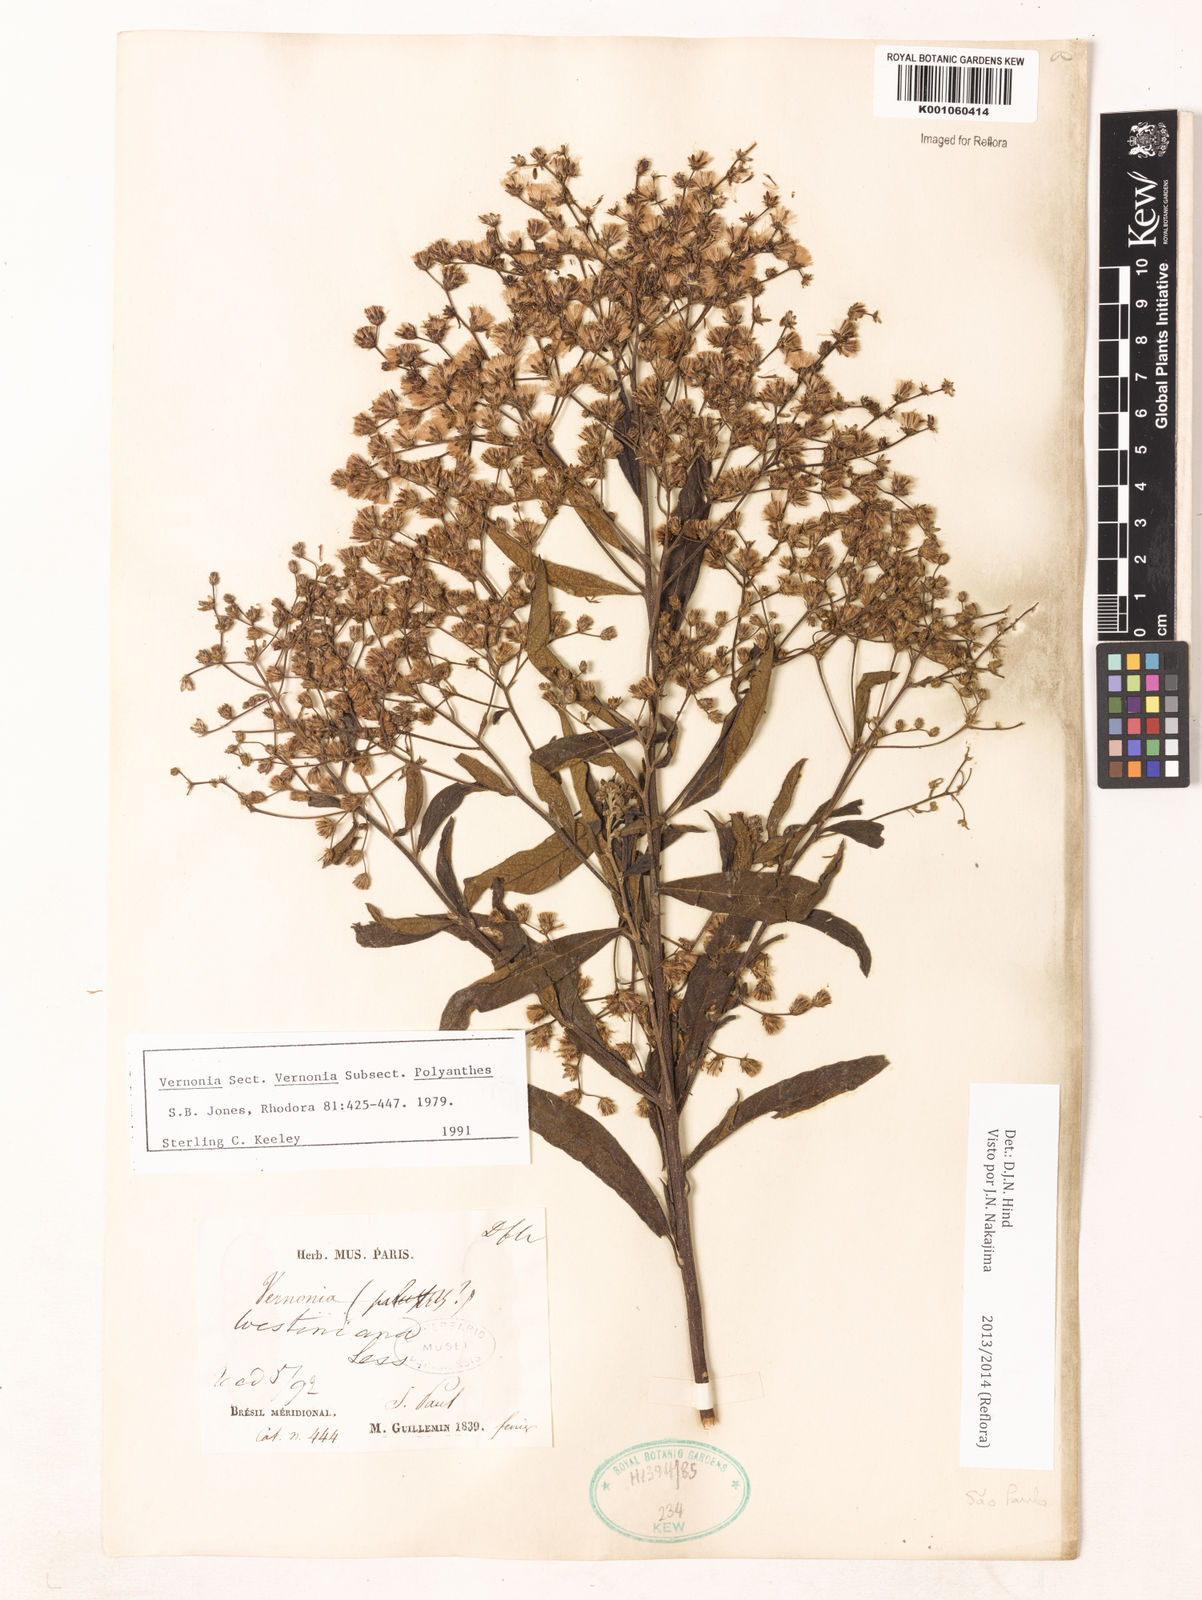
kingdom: Plantae
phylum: Tracheophyta
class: Magnoliopsida
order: Asterales
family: Asteraceae
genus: Vernonanthura
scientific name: Vernonanthura westiniana
